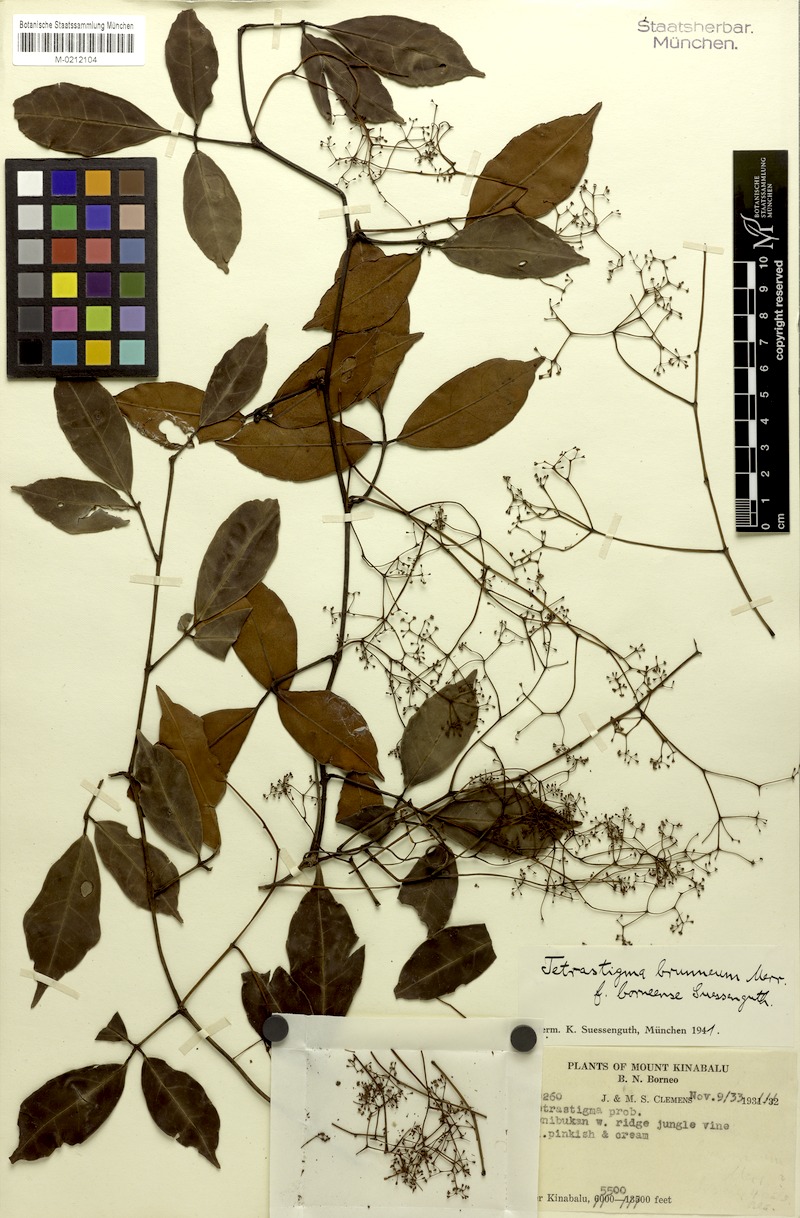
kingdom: Plantae
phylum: Tracheophyta
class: Magnoliopsida
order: Vitales
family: Vitaceae
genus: Tetrastigma
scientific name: Tetrastigma brunneum
